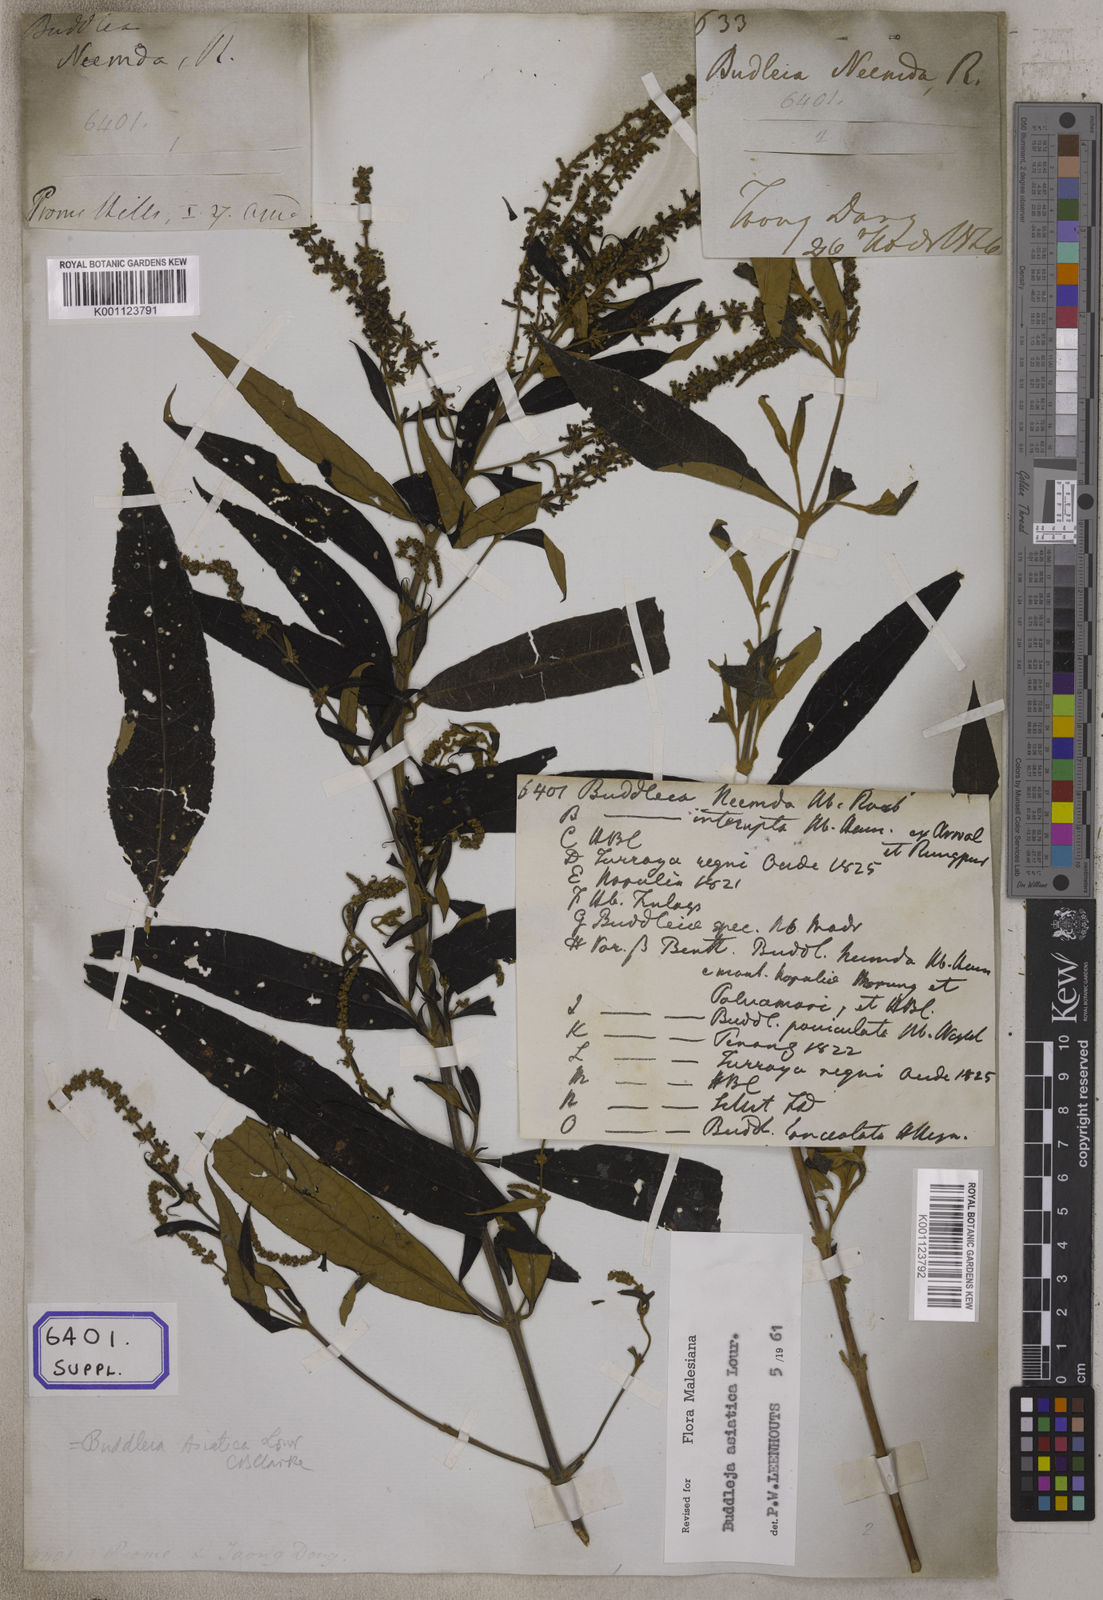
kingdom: Plantae
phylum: Tracheophyta
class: Magnoliopsida
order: Lamiales
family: Scrophulariaceae
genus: Buddleja
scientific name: Buddleja
